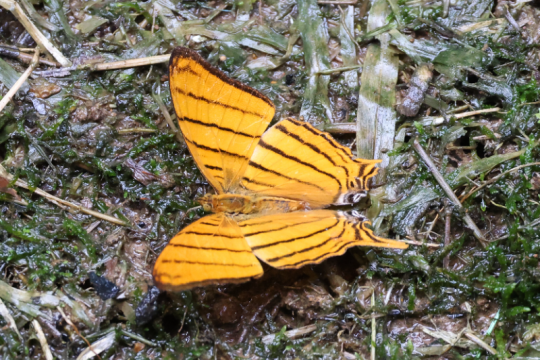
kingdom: Animalia
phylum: Arthropoda
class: Insecta
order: Lepidoptera
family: Nymphalidae
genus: Marpesia
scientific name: Marpesia berania
